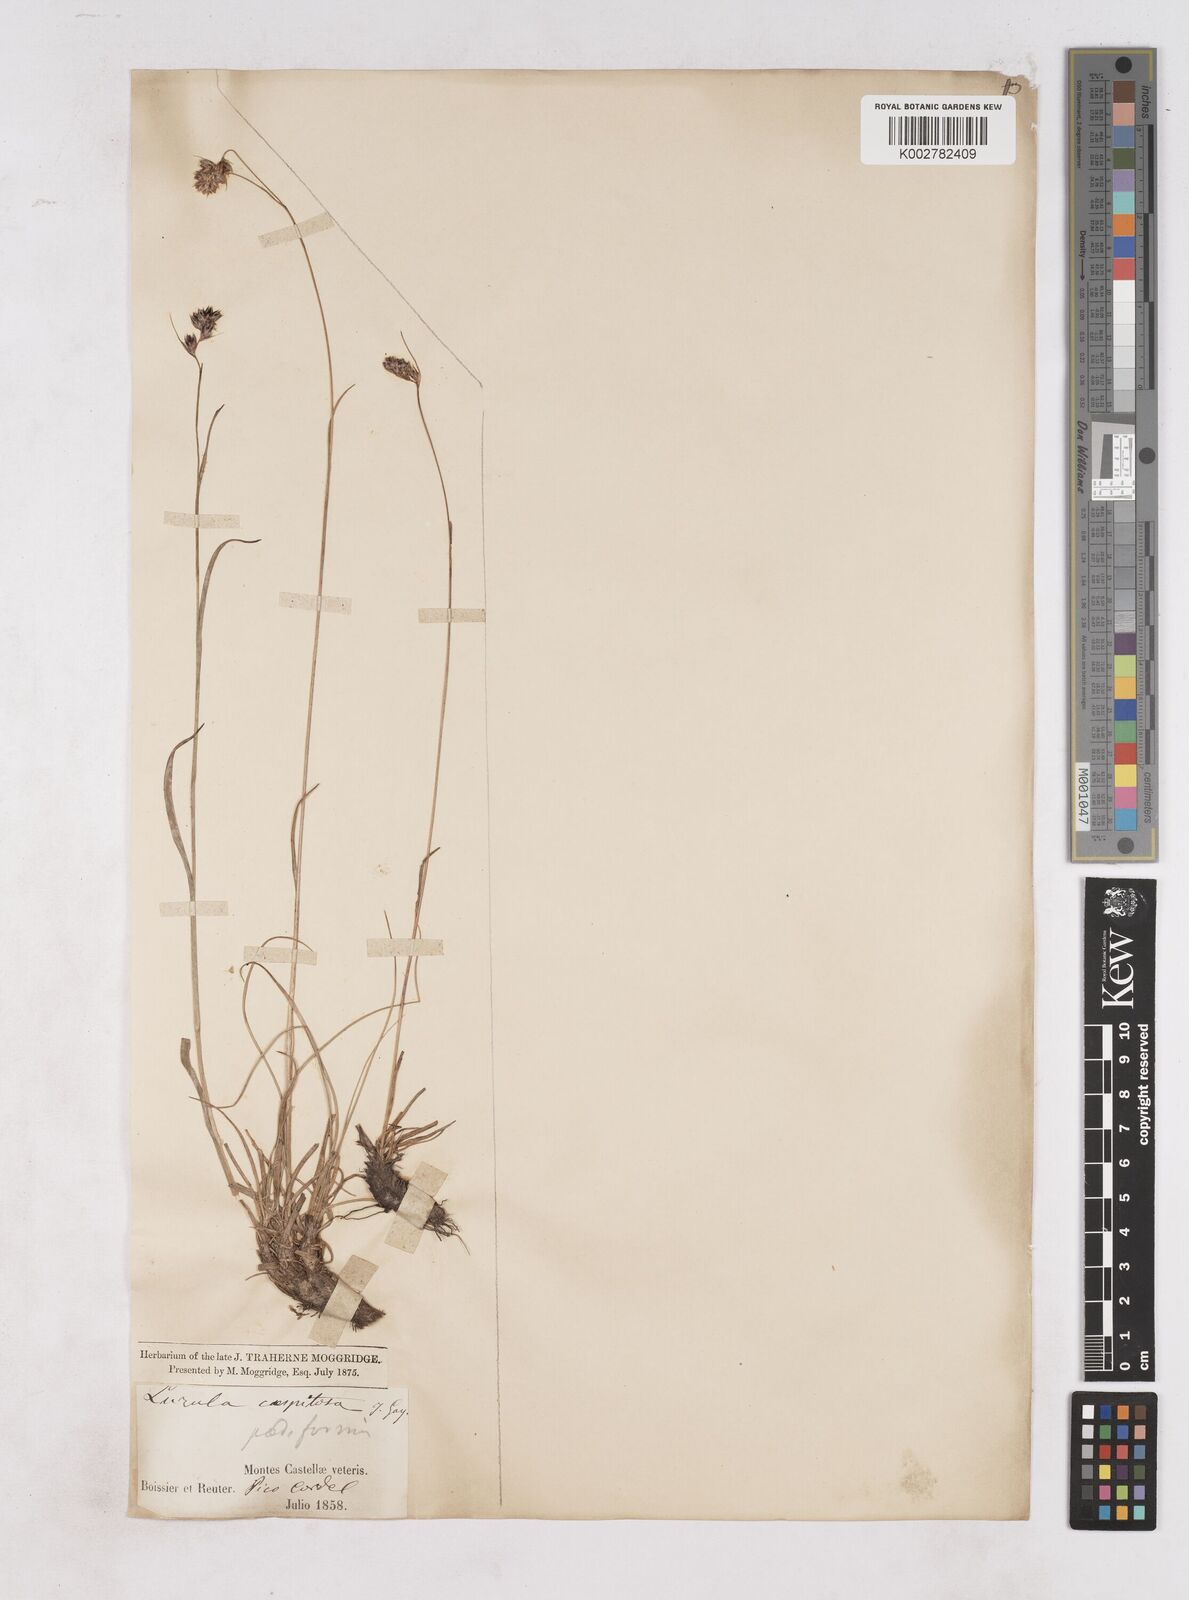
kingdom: Plantae
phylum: Tracheophyta
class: Liliopsida
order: Poales
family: Juncaceae
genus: Luzula
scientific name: Luzula caespitosa
